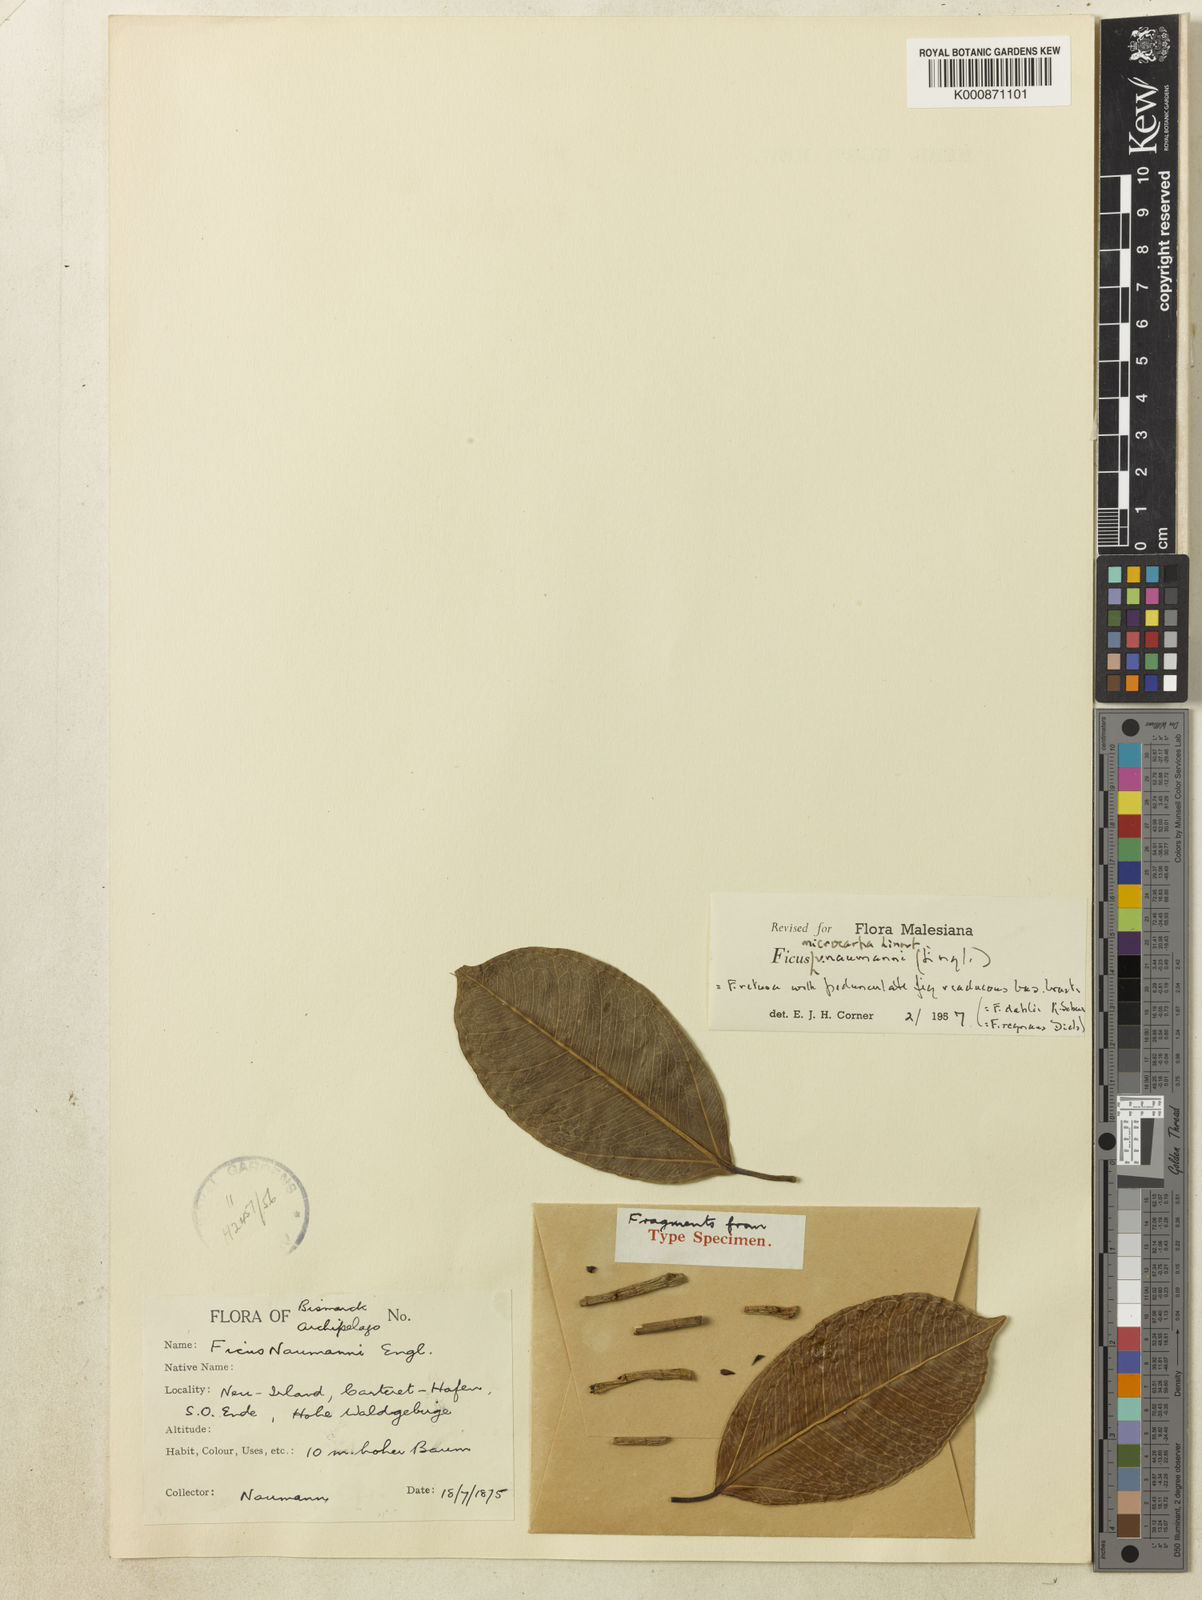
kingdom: Plantae
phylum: Tracheophyta
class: Magnoliopsida
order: Rosales
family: Moraceae
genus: Ficus
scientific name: Ficus microcarpa
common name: Chinese banyan
